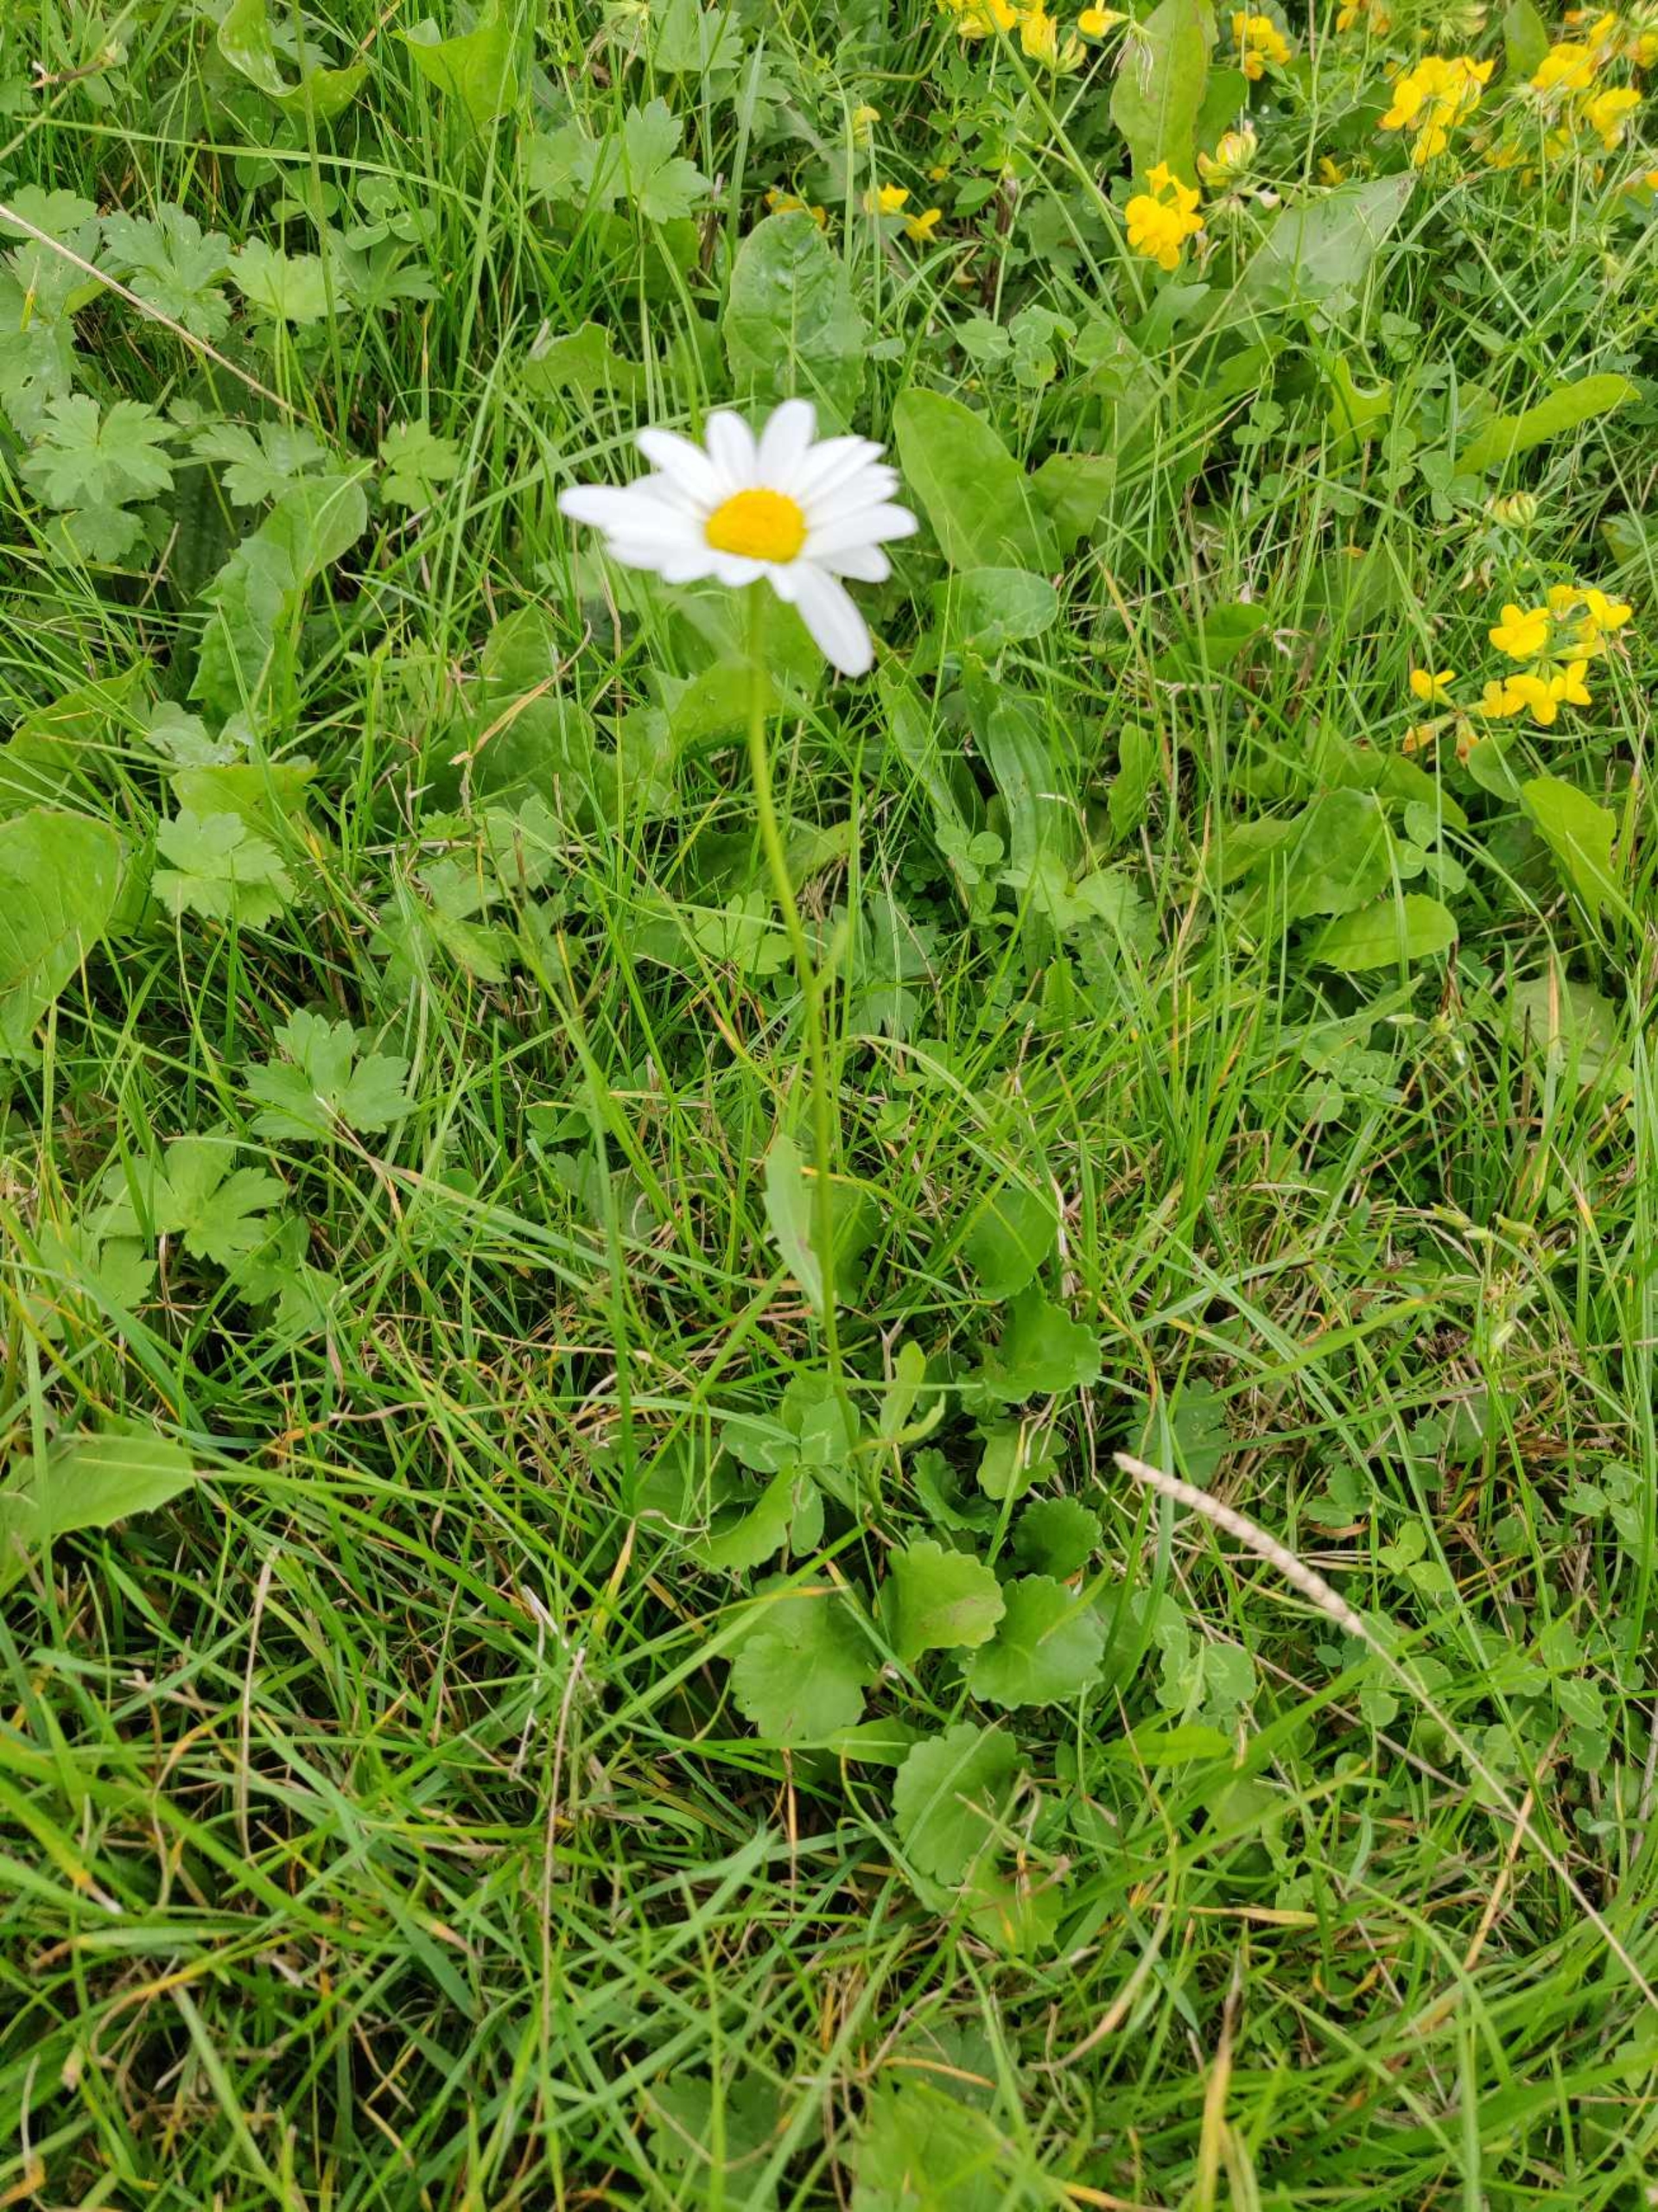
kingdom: Plantae
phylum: Tracheophyta
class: Magnoliopsida
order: Asterales
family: Asteraceae
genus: Leucanthemum
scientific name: Leucanthemum vulgare
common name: Hvid okseøje
